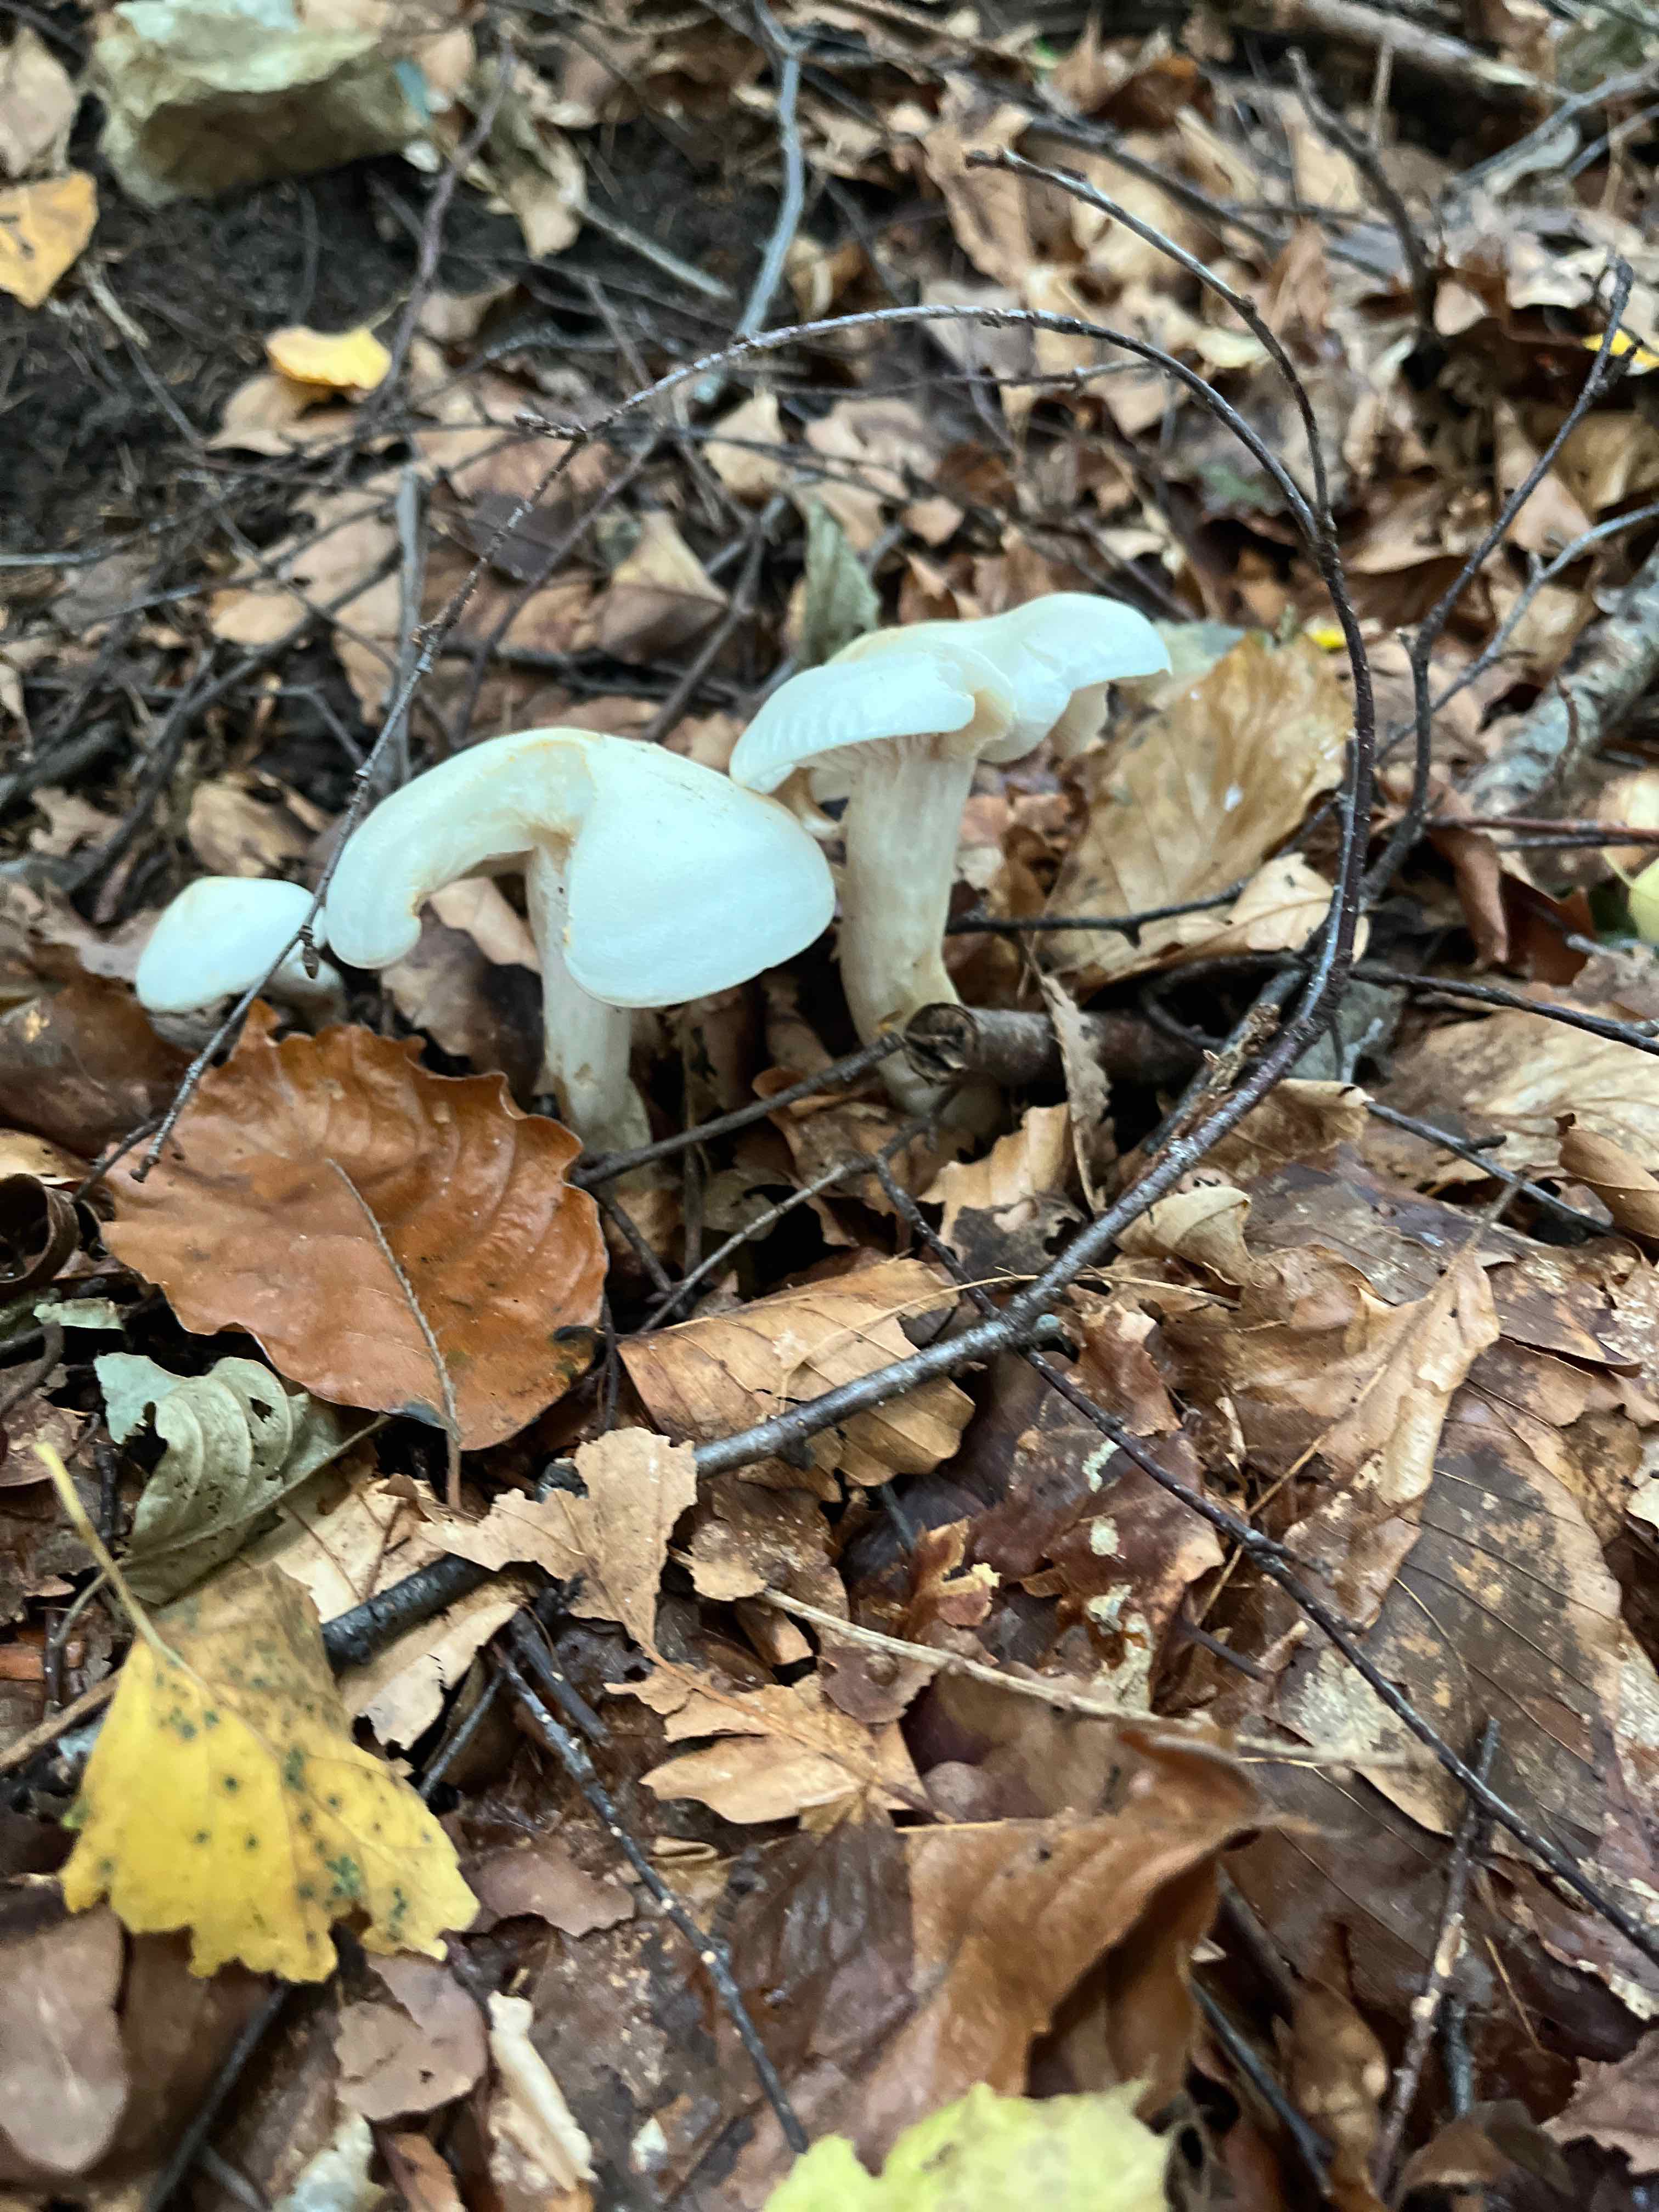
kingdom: Fungi
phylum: Basidiomycota
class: Agaricomycetes
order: Agaricales
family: Tricholomataceae
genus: Tricholoma
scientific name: Tricholoma
